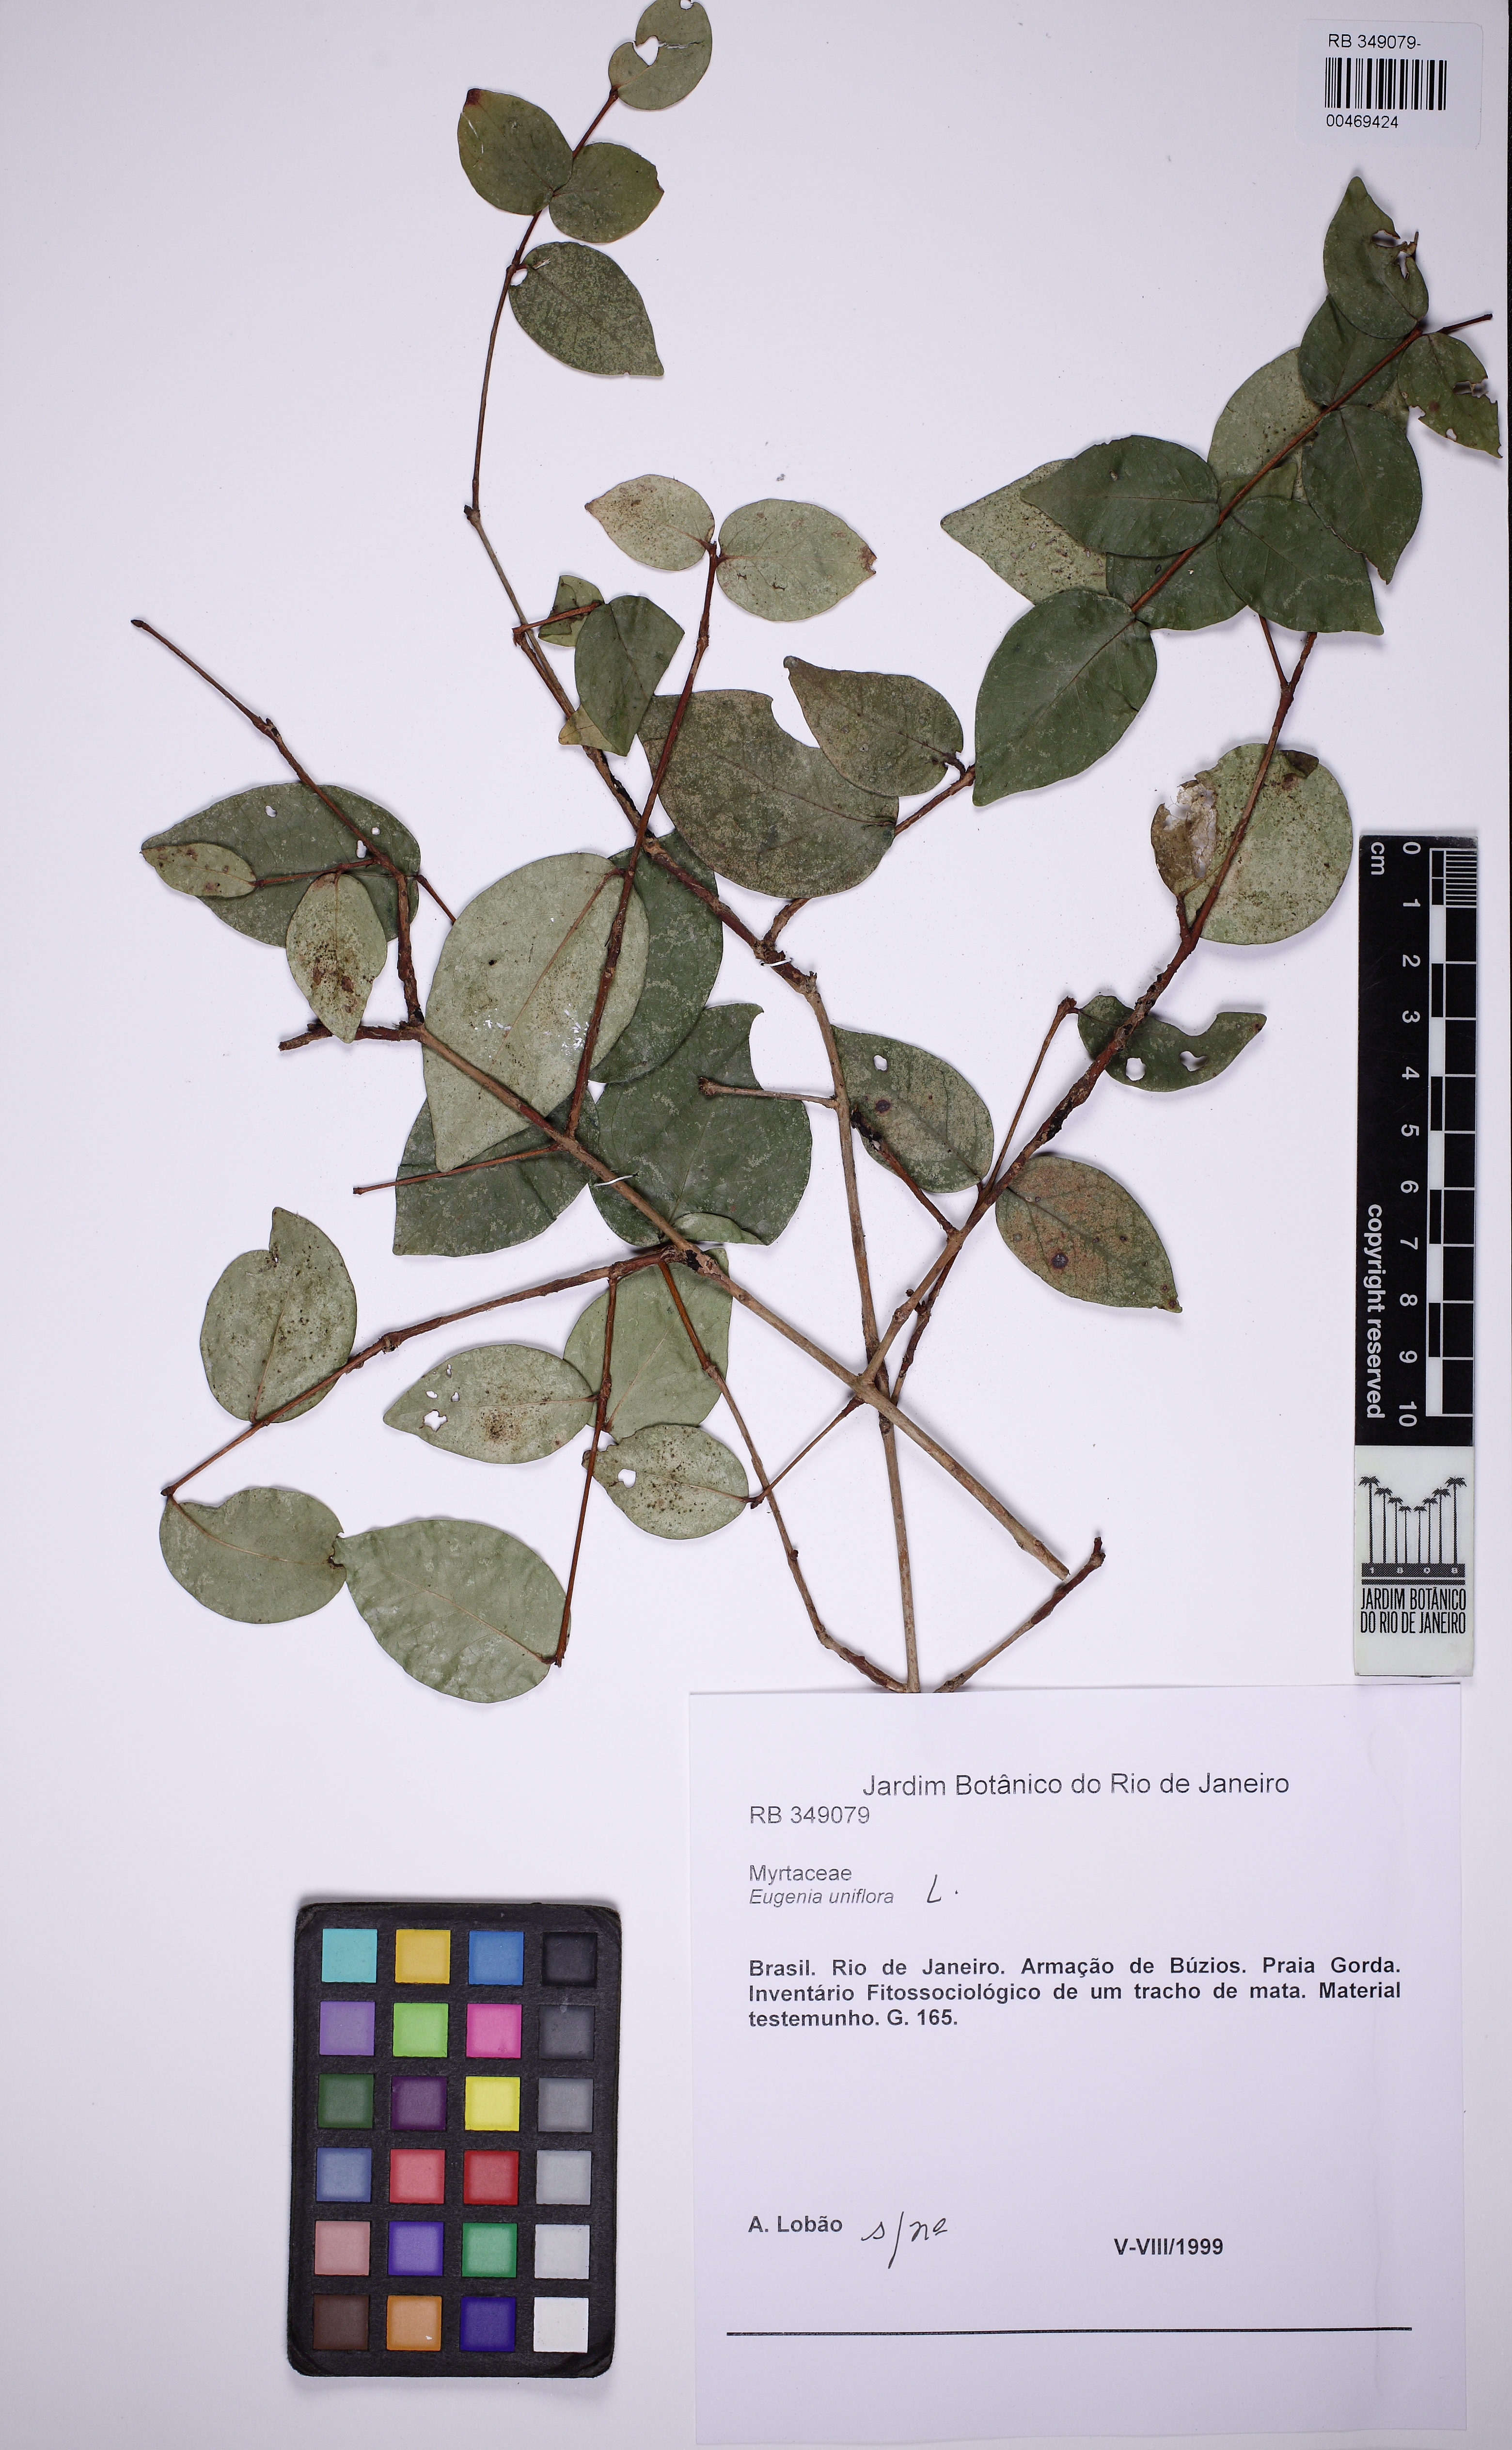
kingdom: Plantae
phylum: Tracheophyta
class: Magnoliopsida
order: Myrtales
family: Myrtaceae
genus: Eugenia
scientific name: Eugenia uniflora
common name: Surinam cherry
